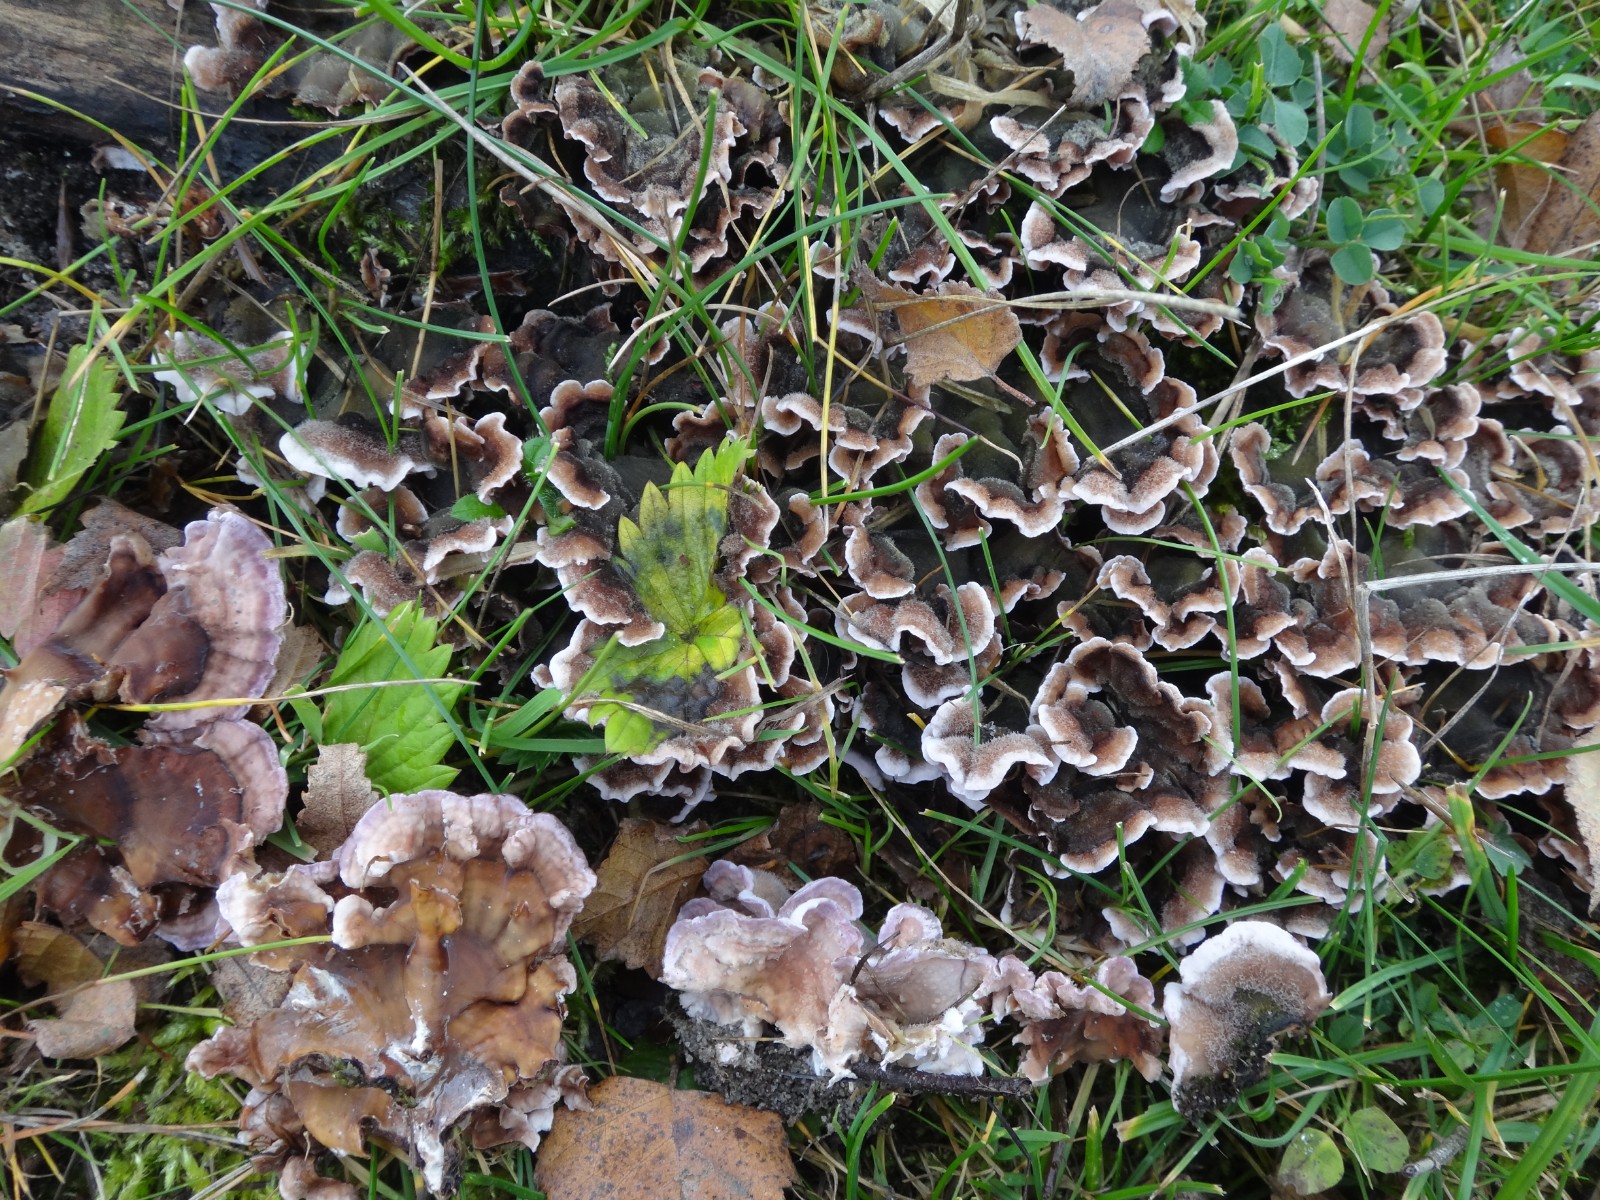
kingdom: Fungi
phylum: Basidiomycota
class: Agaricomycetes
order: Agaricales
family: Cyphellaceae
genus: Chondrostereum
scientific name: Chondrostereum purpureum
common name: purpurlædersvamp
